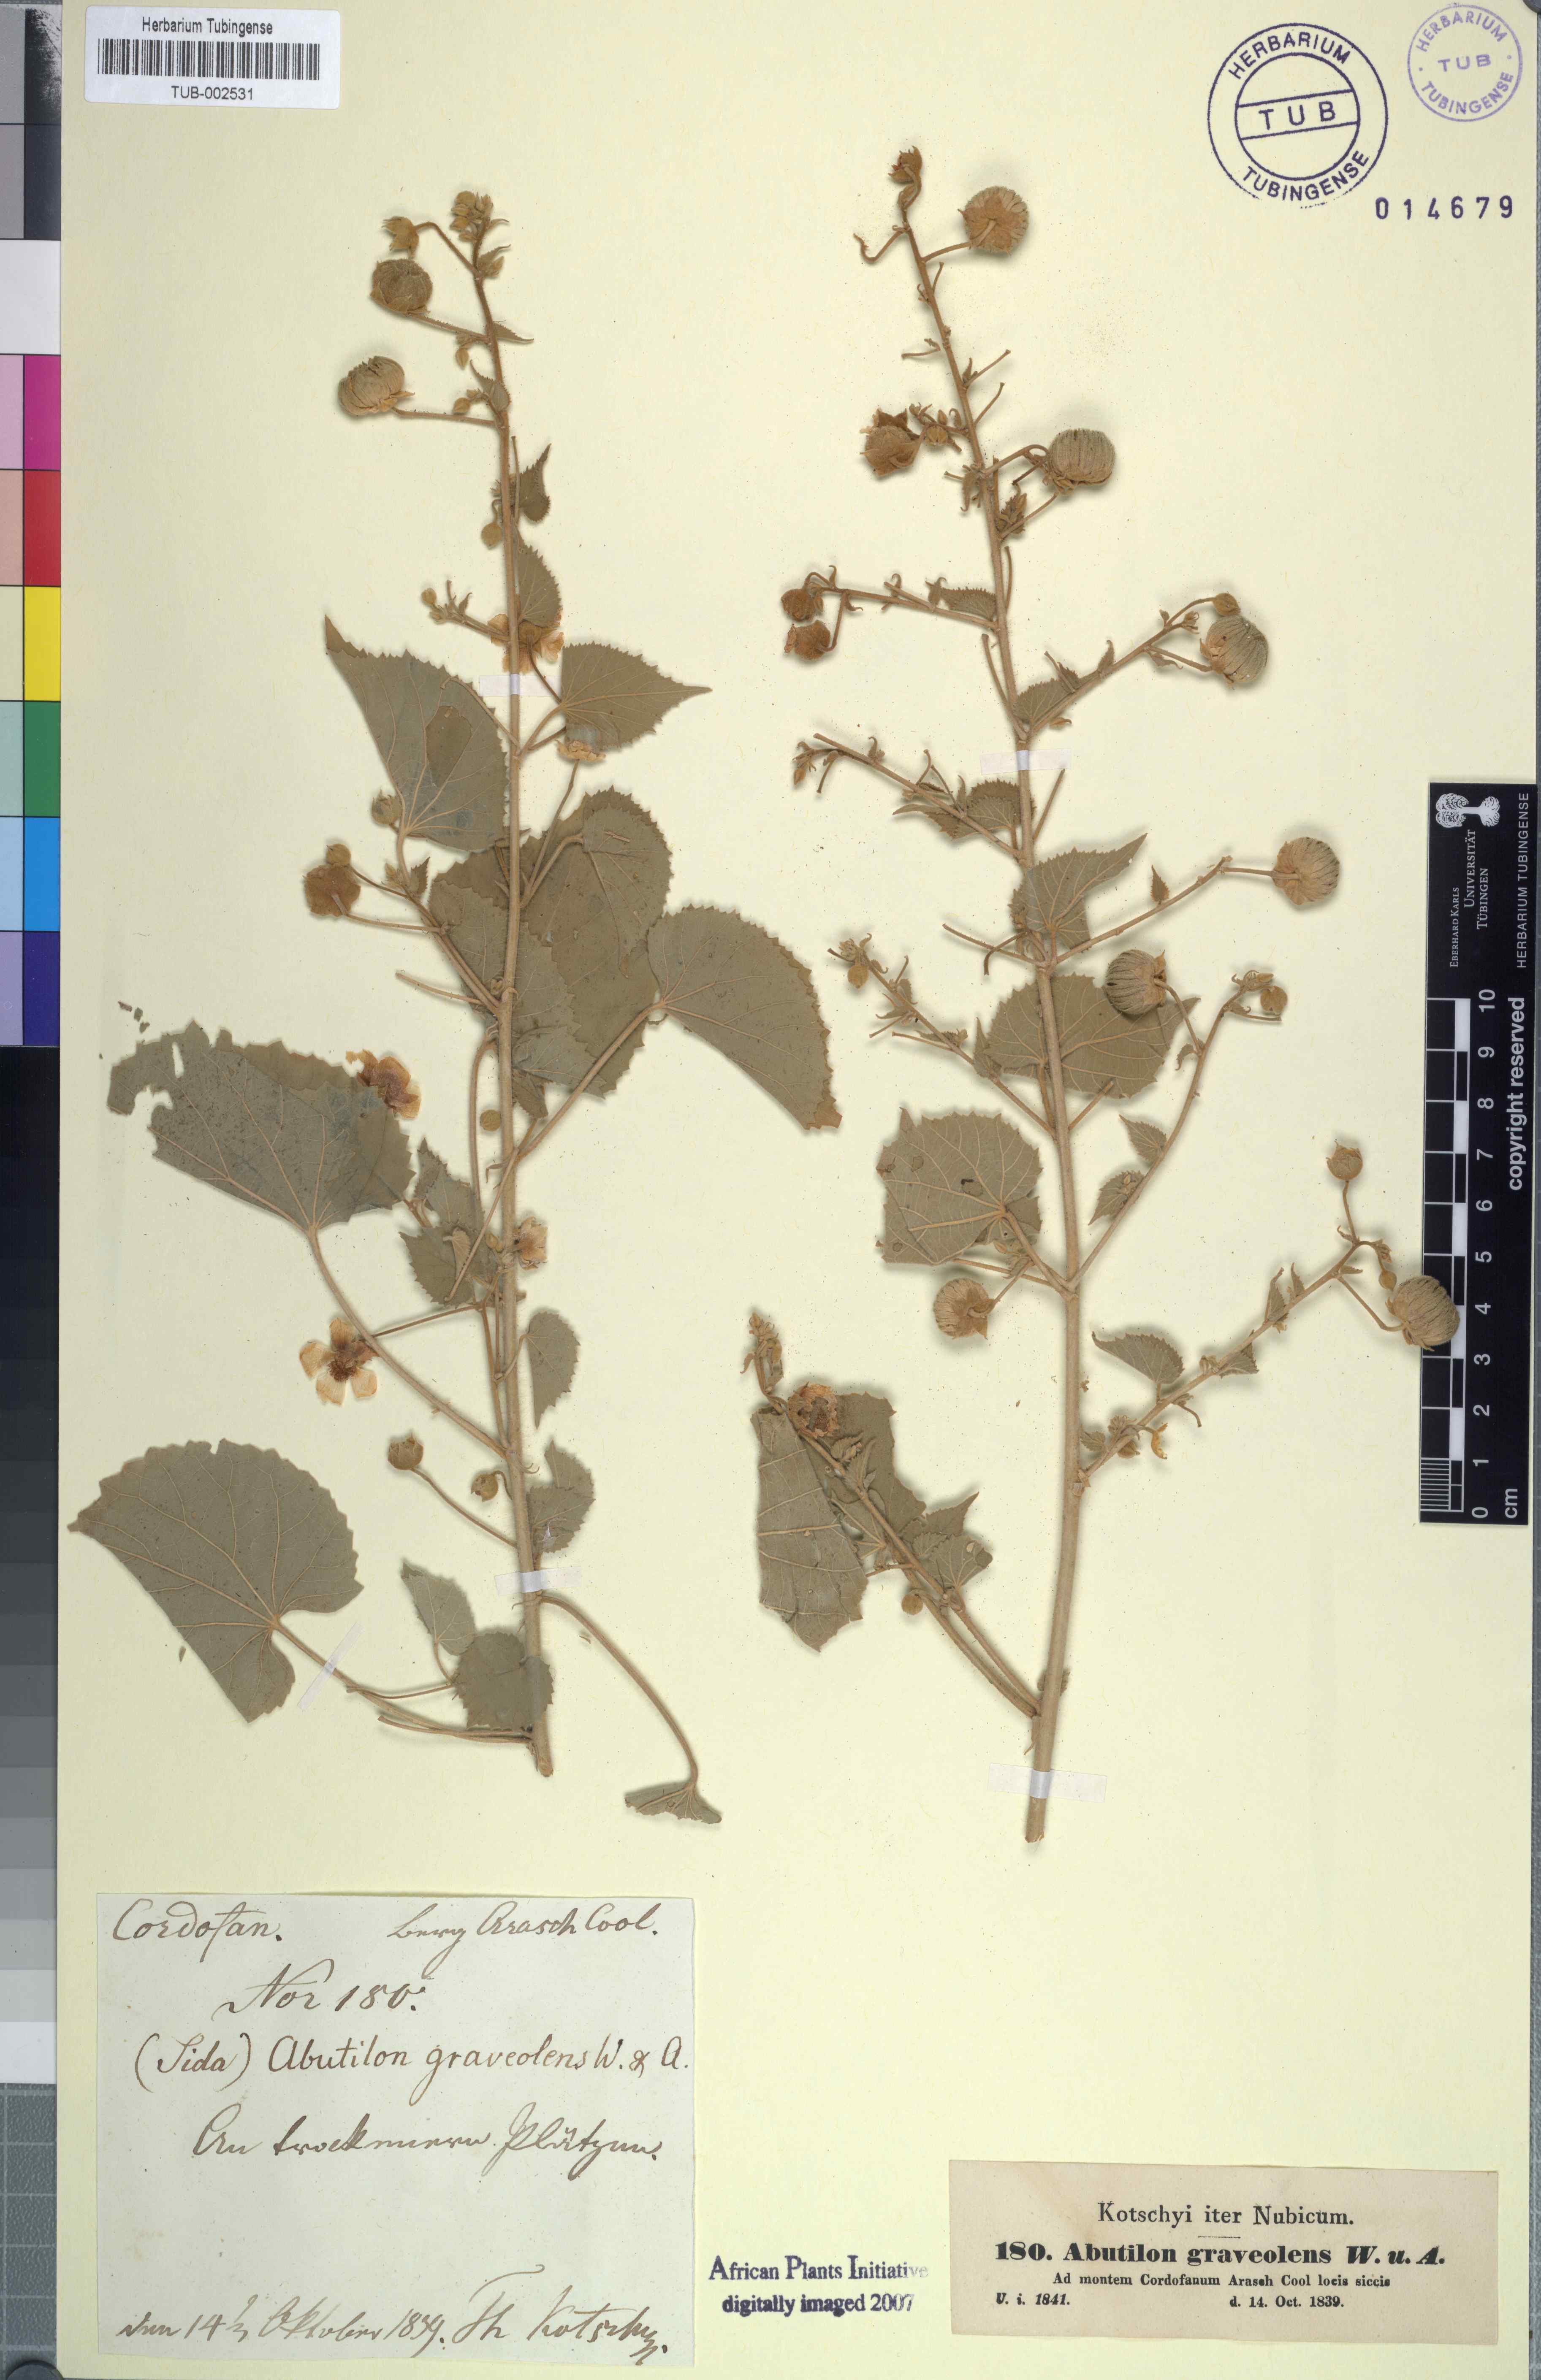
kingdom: Plantae
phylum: Tracheophyta
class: Magnoliopsida
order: Malvales
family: Malvaceae
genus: Abutilon
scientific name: Abutilon hirtum
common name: Florida keys indian mallow
